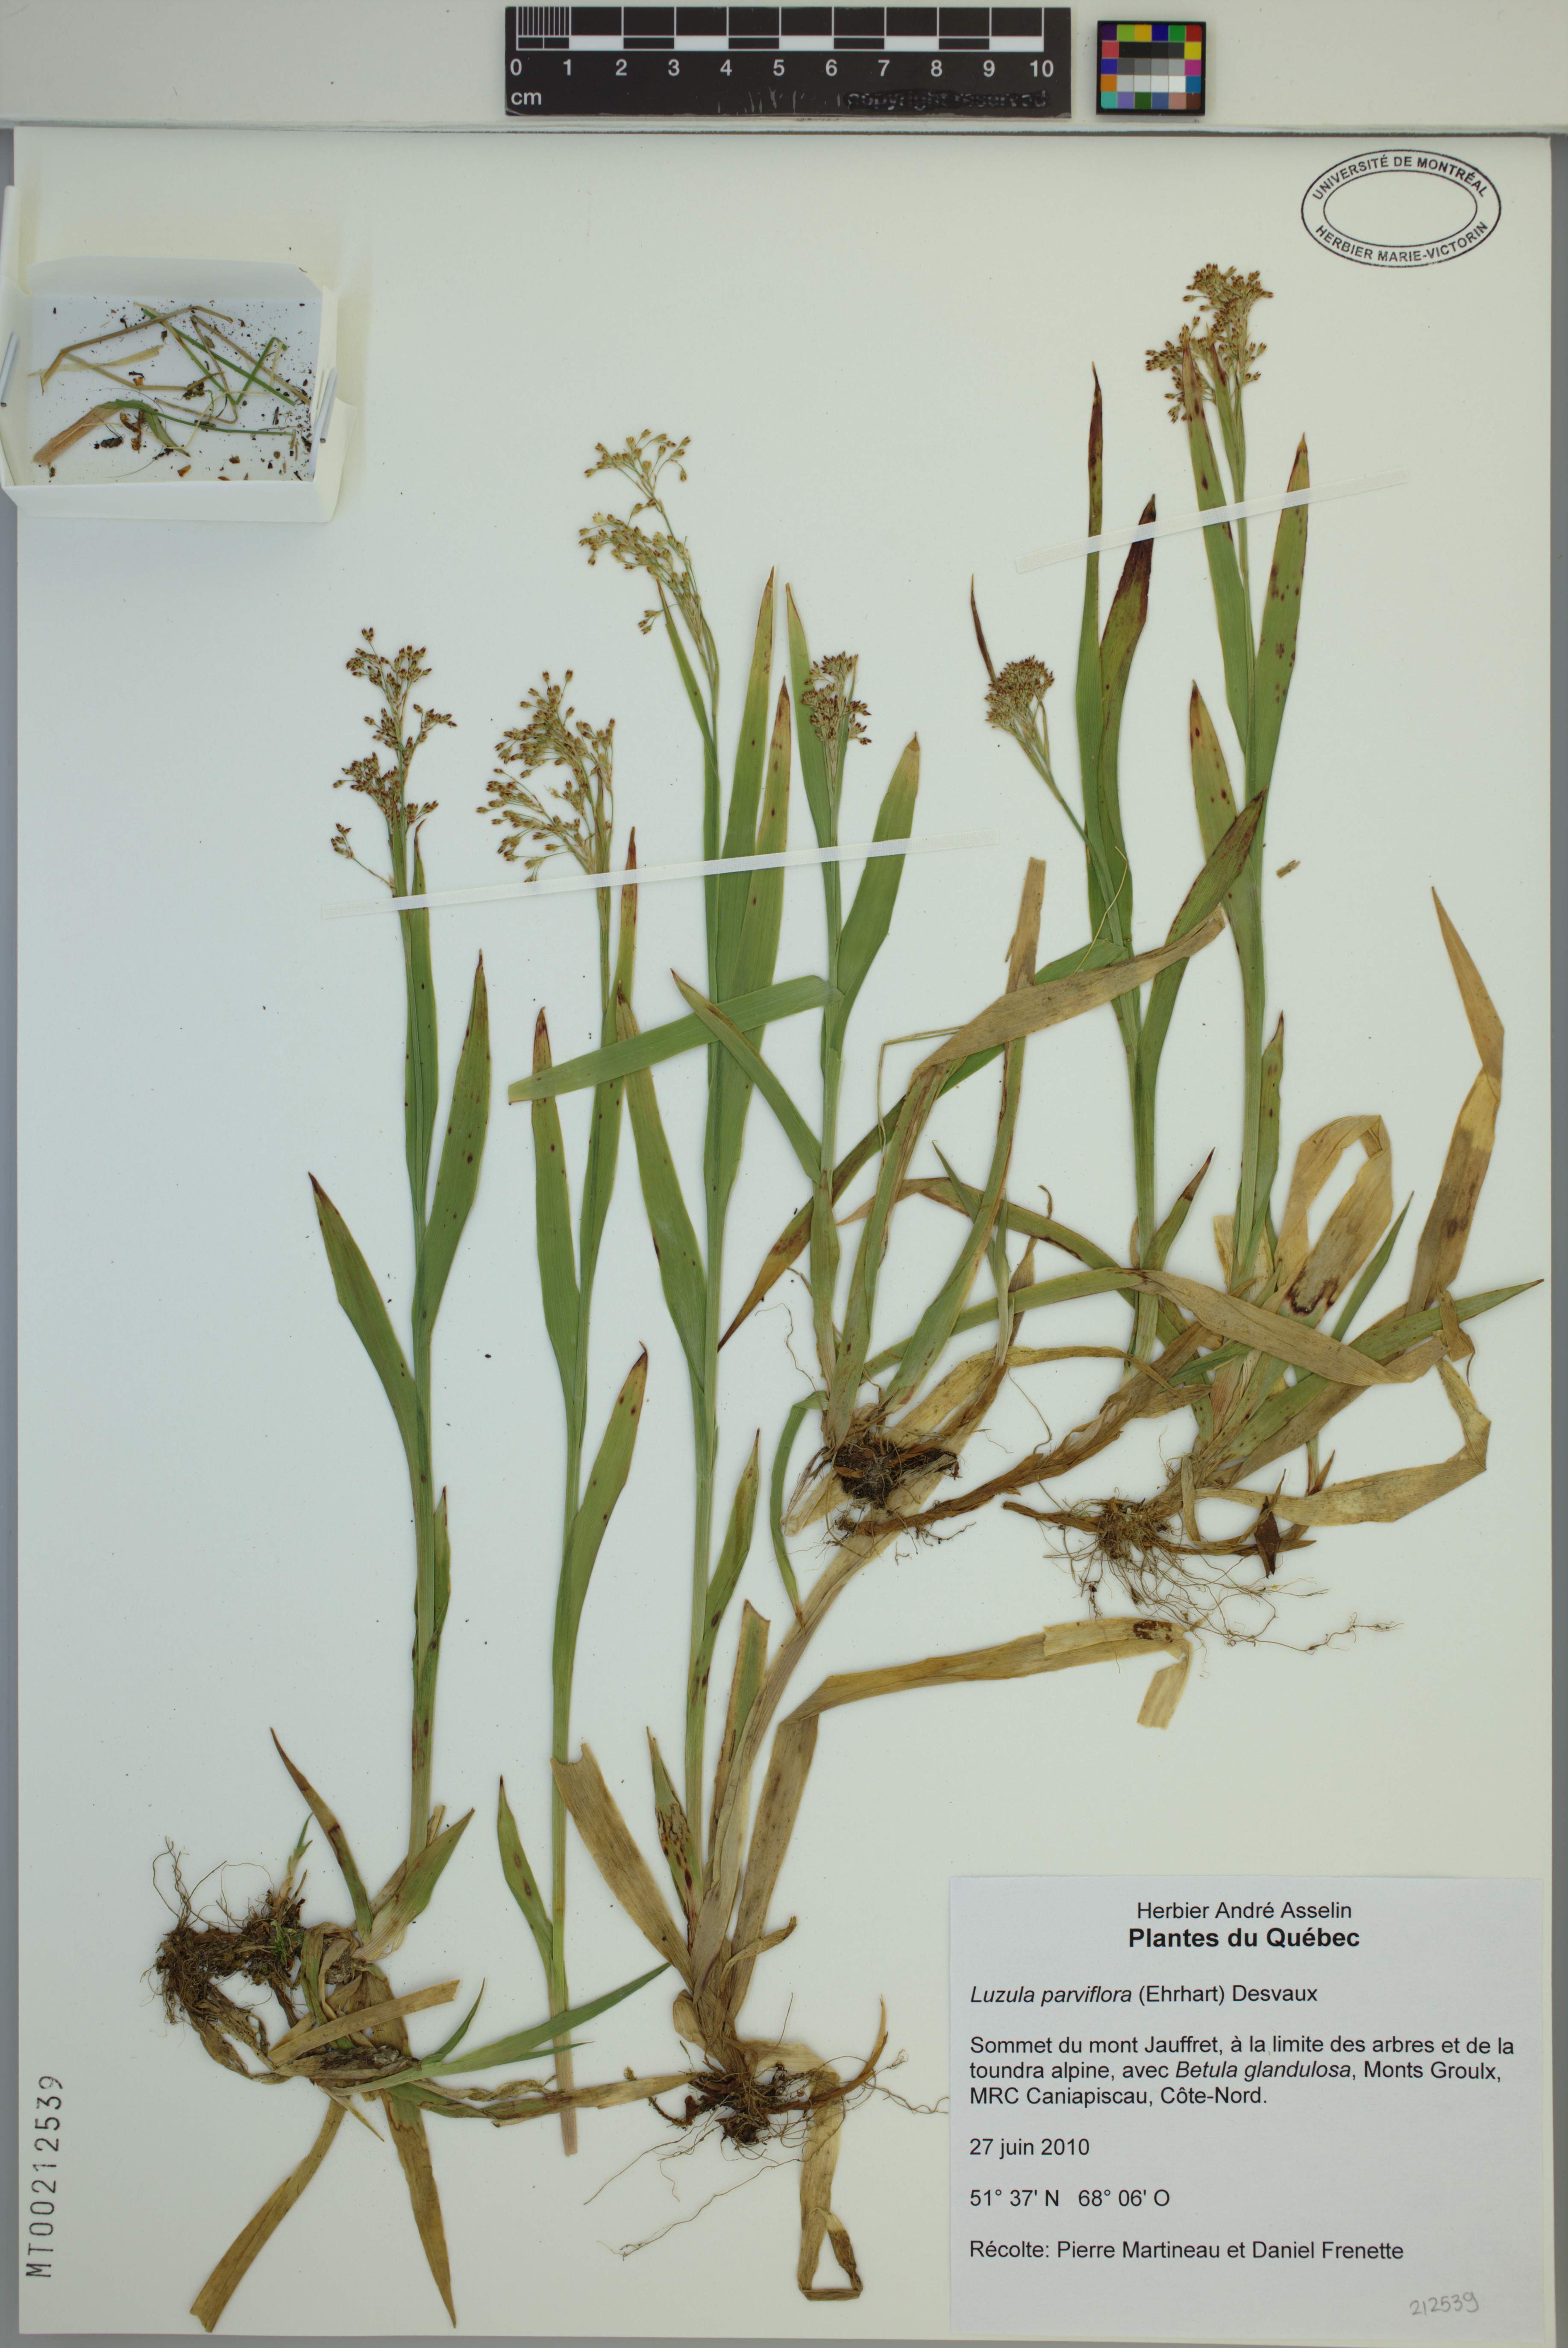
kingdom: Plantae
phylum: Tracheophyta
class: Liliopsida
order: Poales
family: Juncaceae
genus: Luzula
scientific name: Luzula parviflora
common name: Millet woodrush
